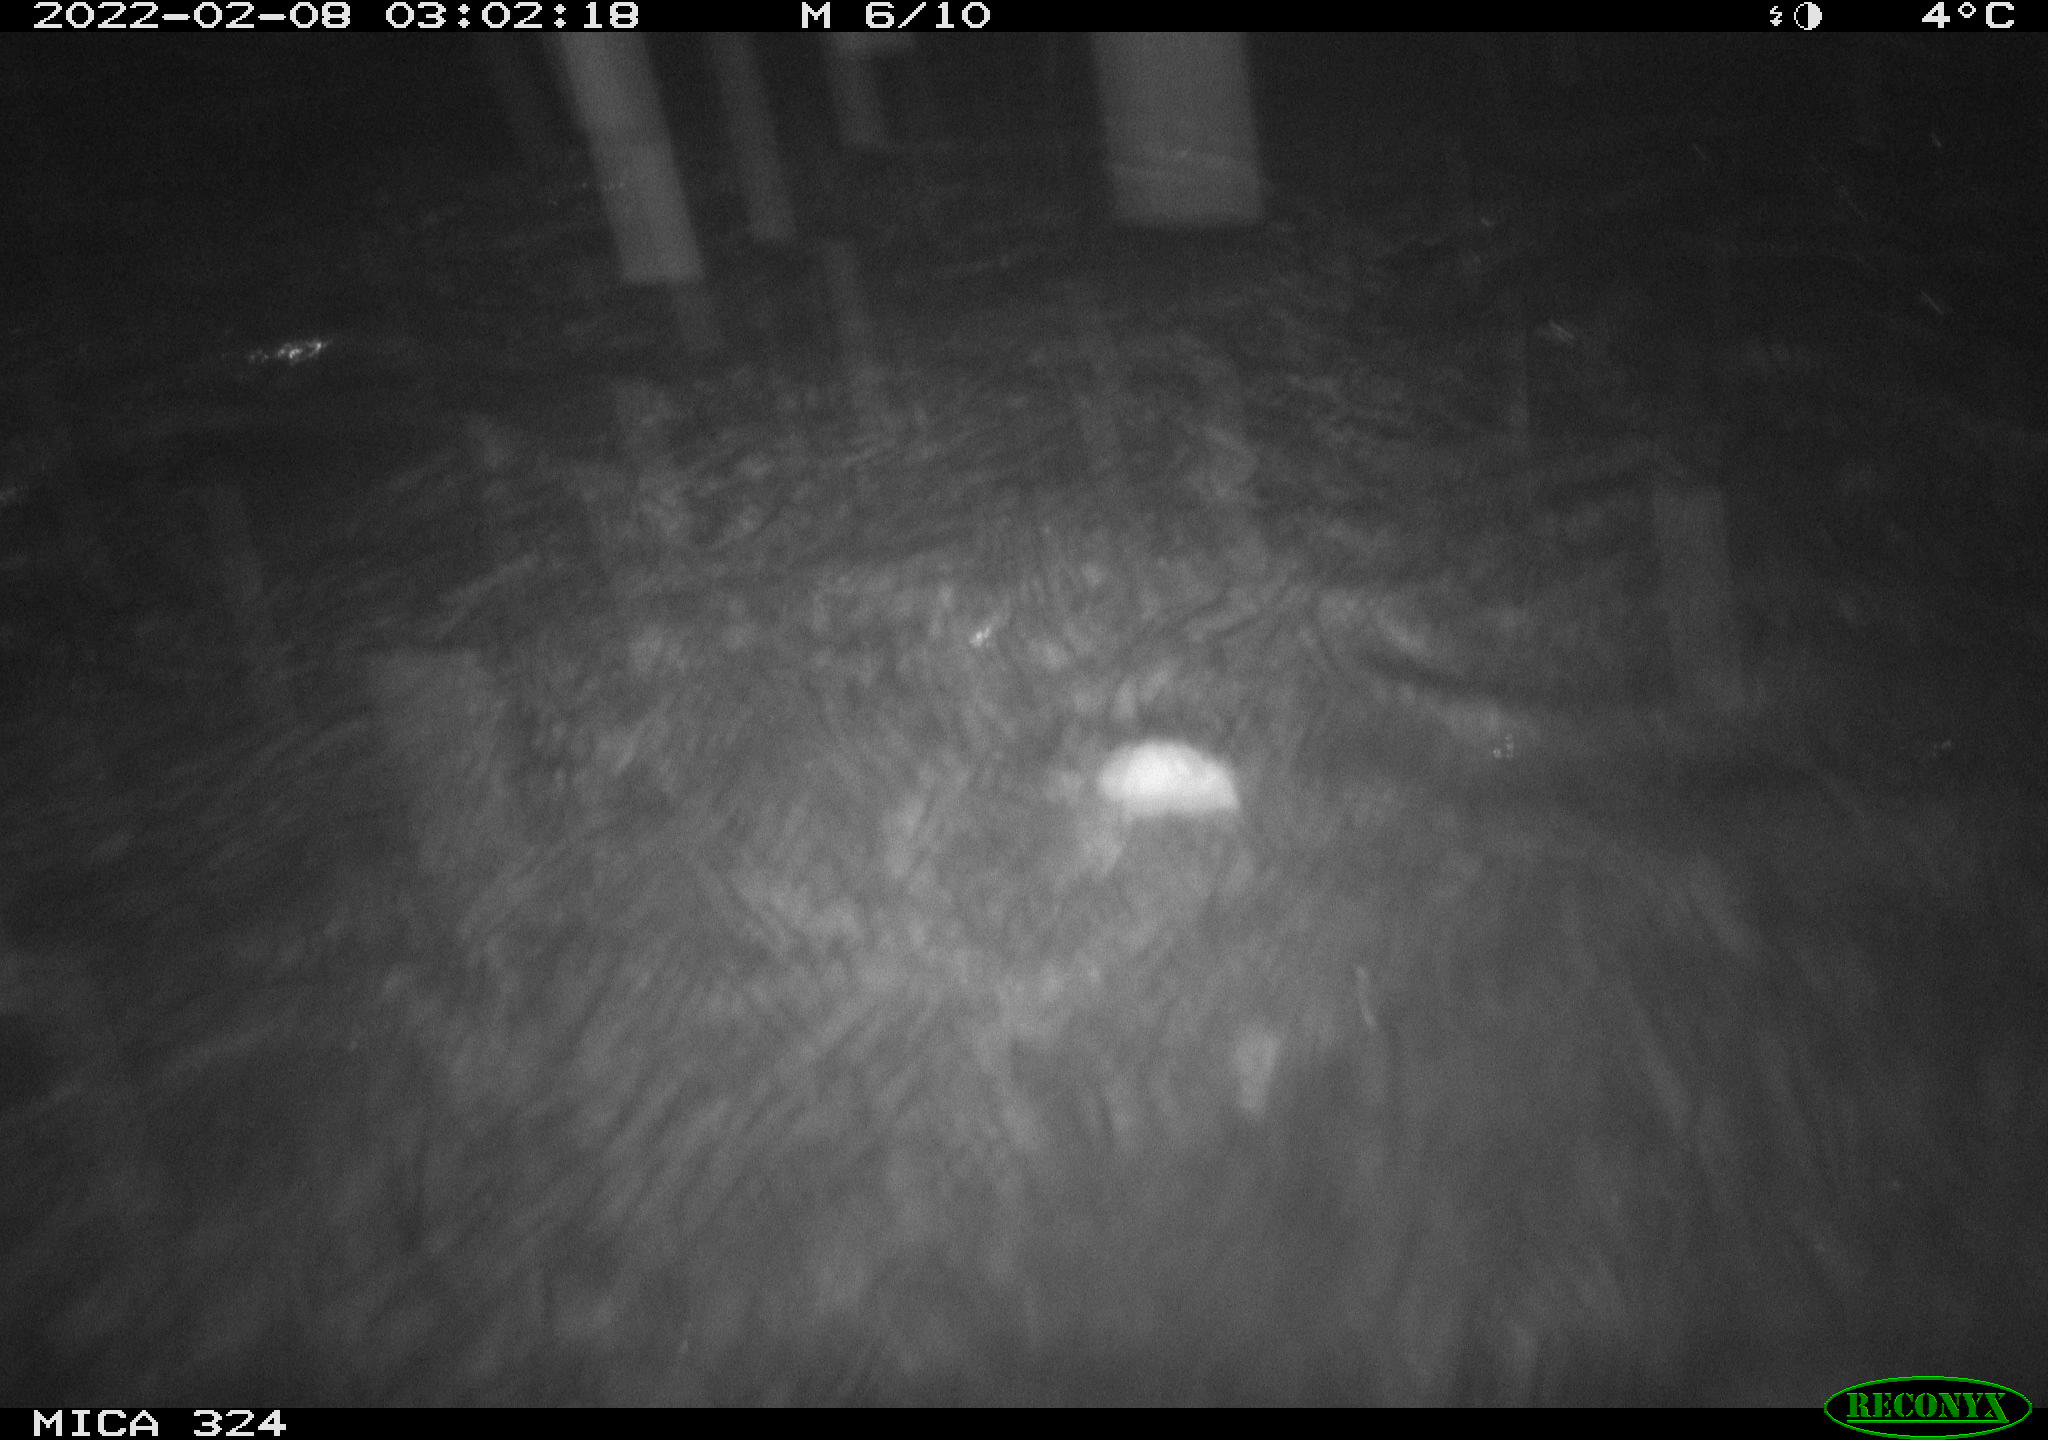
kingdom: Animalia
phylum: Chordata
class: Mammalia
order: Rodentia
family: Cricetidae
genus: Ondatra
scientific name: Ondatra zibethicus
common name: Muskrat
